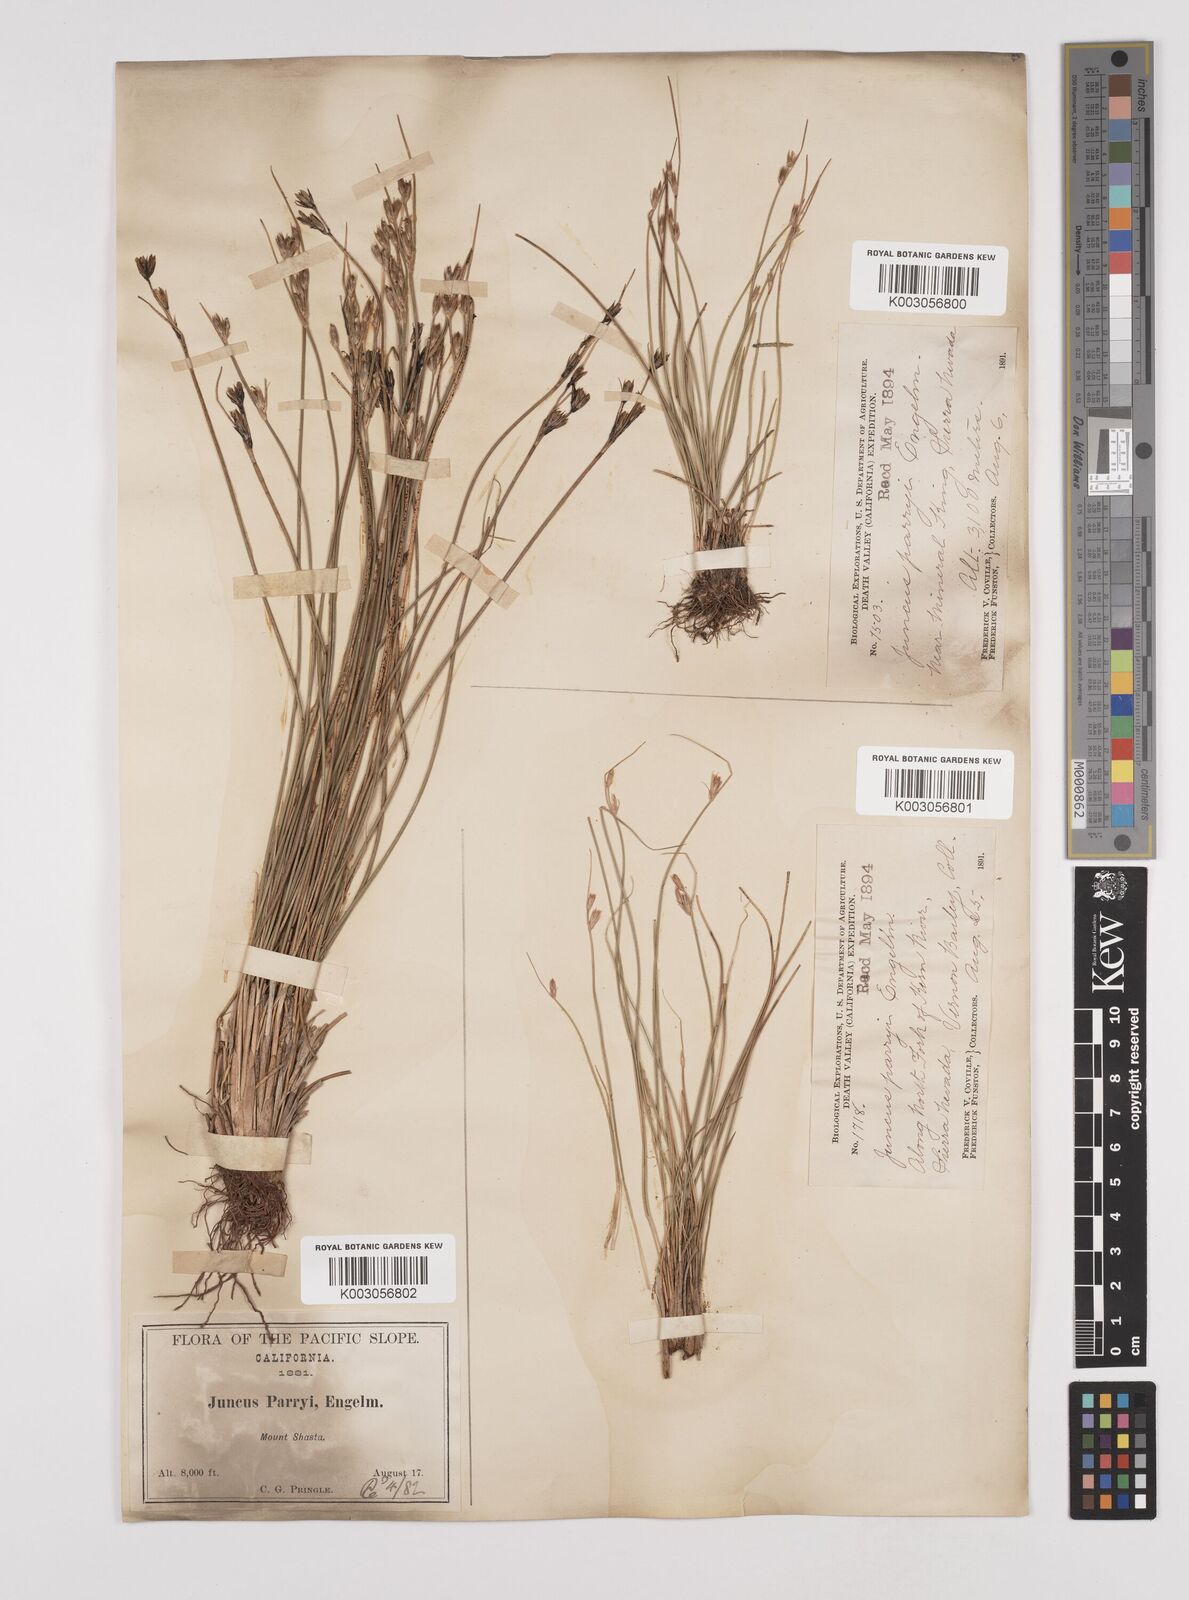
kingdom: Plantae
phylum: Tracheophyta
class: Liliopsida
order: Poales
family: Juncaceae
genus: Juncus
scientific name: Juncus parryi
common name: Parry's rush
